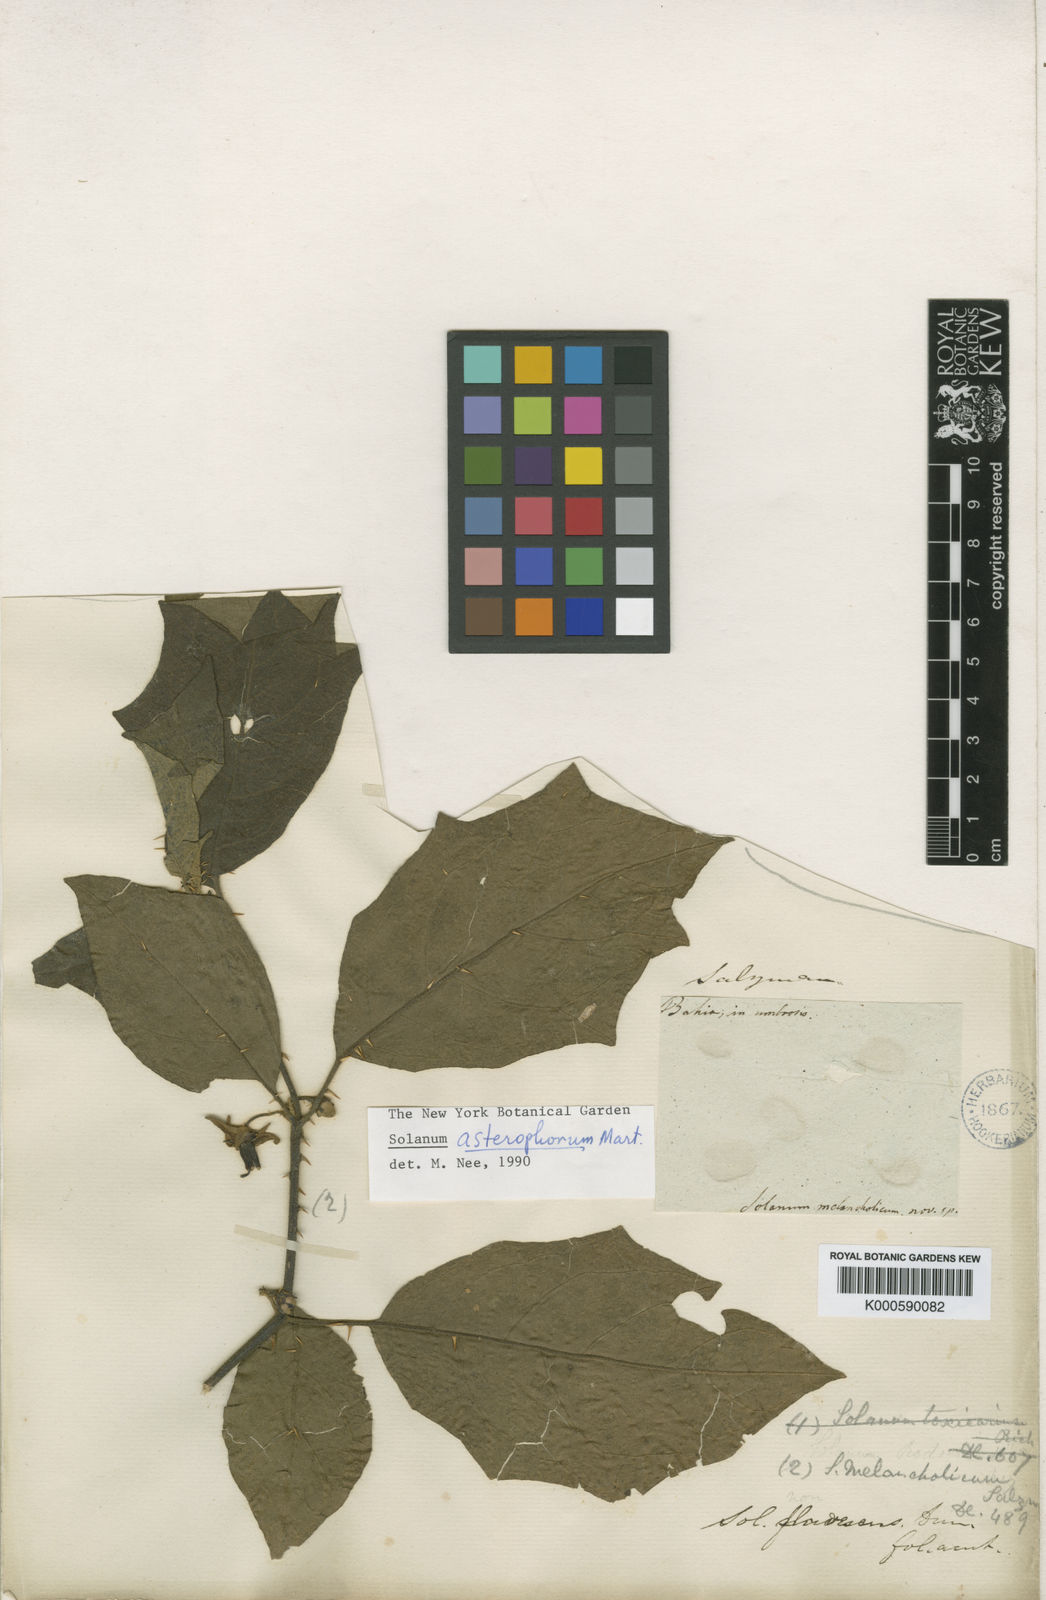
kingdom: Plantae
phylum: Tracheophyta
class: Magnoliopsida
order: Solanales
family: Solanaceae
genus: Solanum
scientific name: Solanum asterophorum
